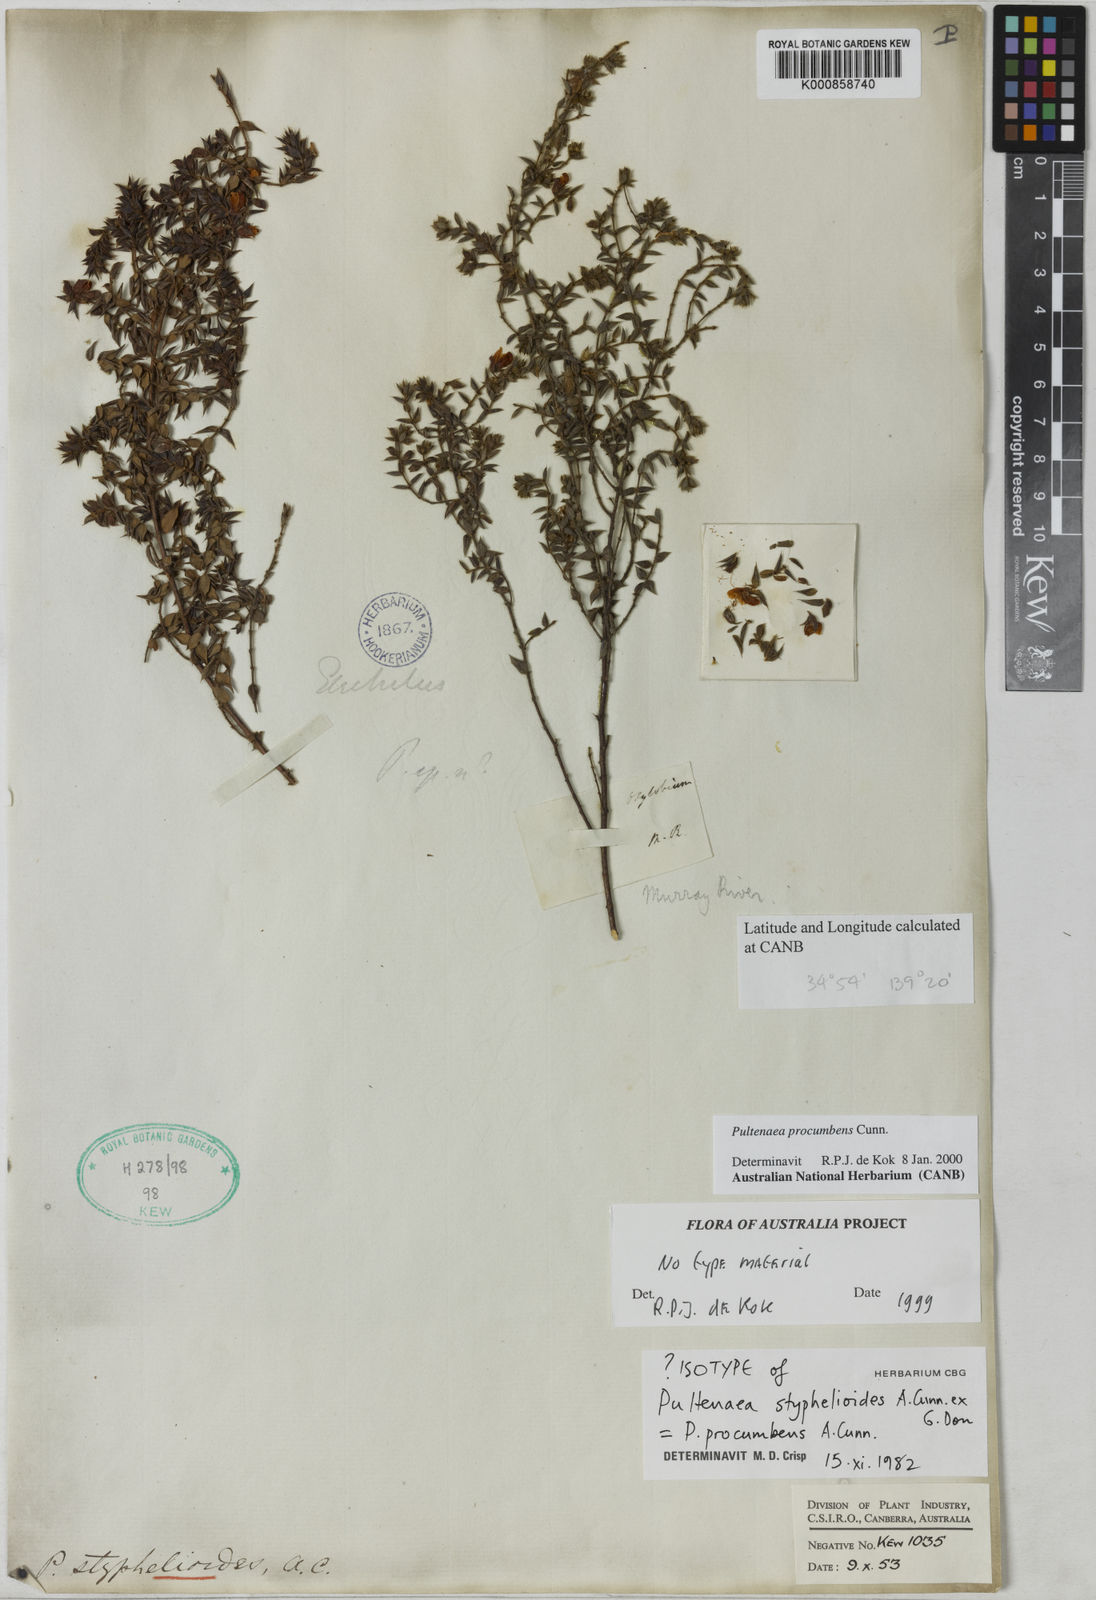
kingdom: Plantae
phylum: Tracheophyta
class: Magnoliopsida
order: Fabales
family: Fabaceae
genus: Pultenaea
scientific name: Pultenaea procumbens
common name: Heathy bush-pea
